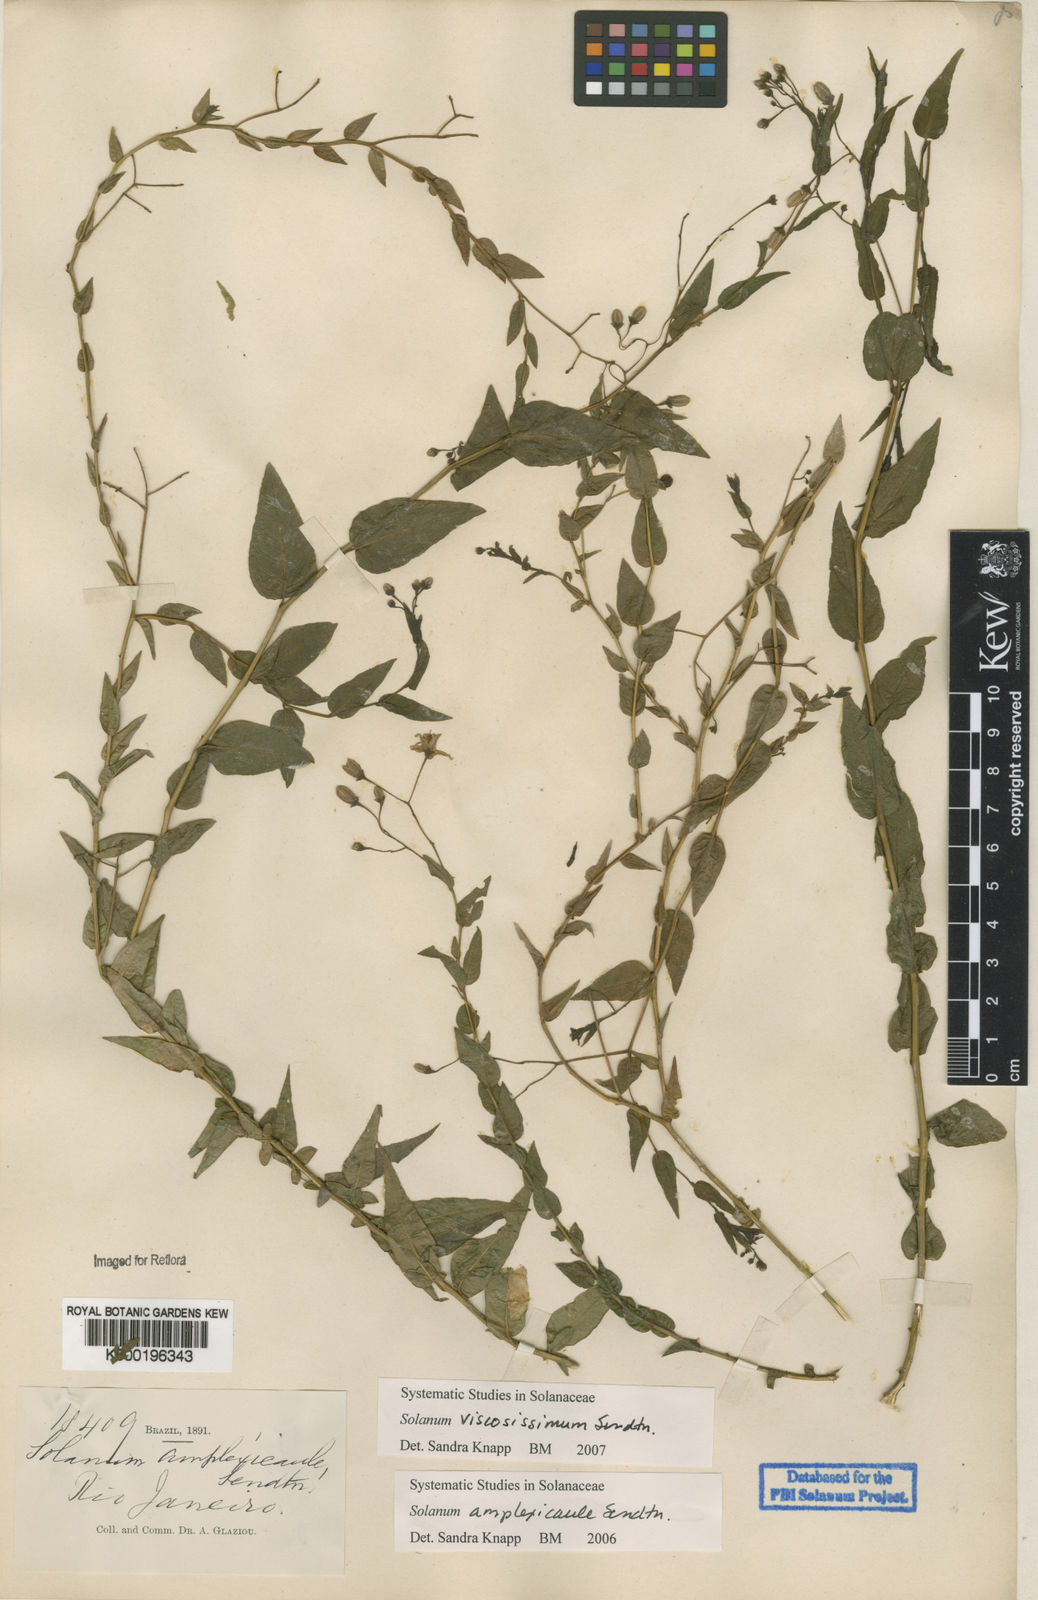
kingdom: Plantae
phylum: Tracheophyta
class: Magnoliopsida
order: Solanales
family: Solanaceae
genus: Solanum
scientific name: Solanum viscosissimum
